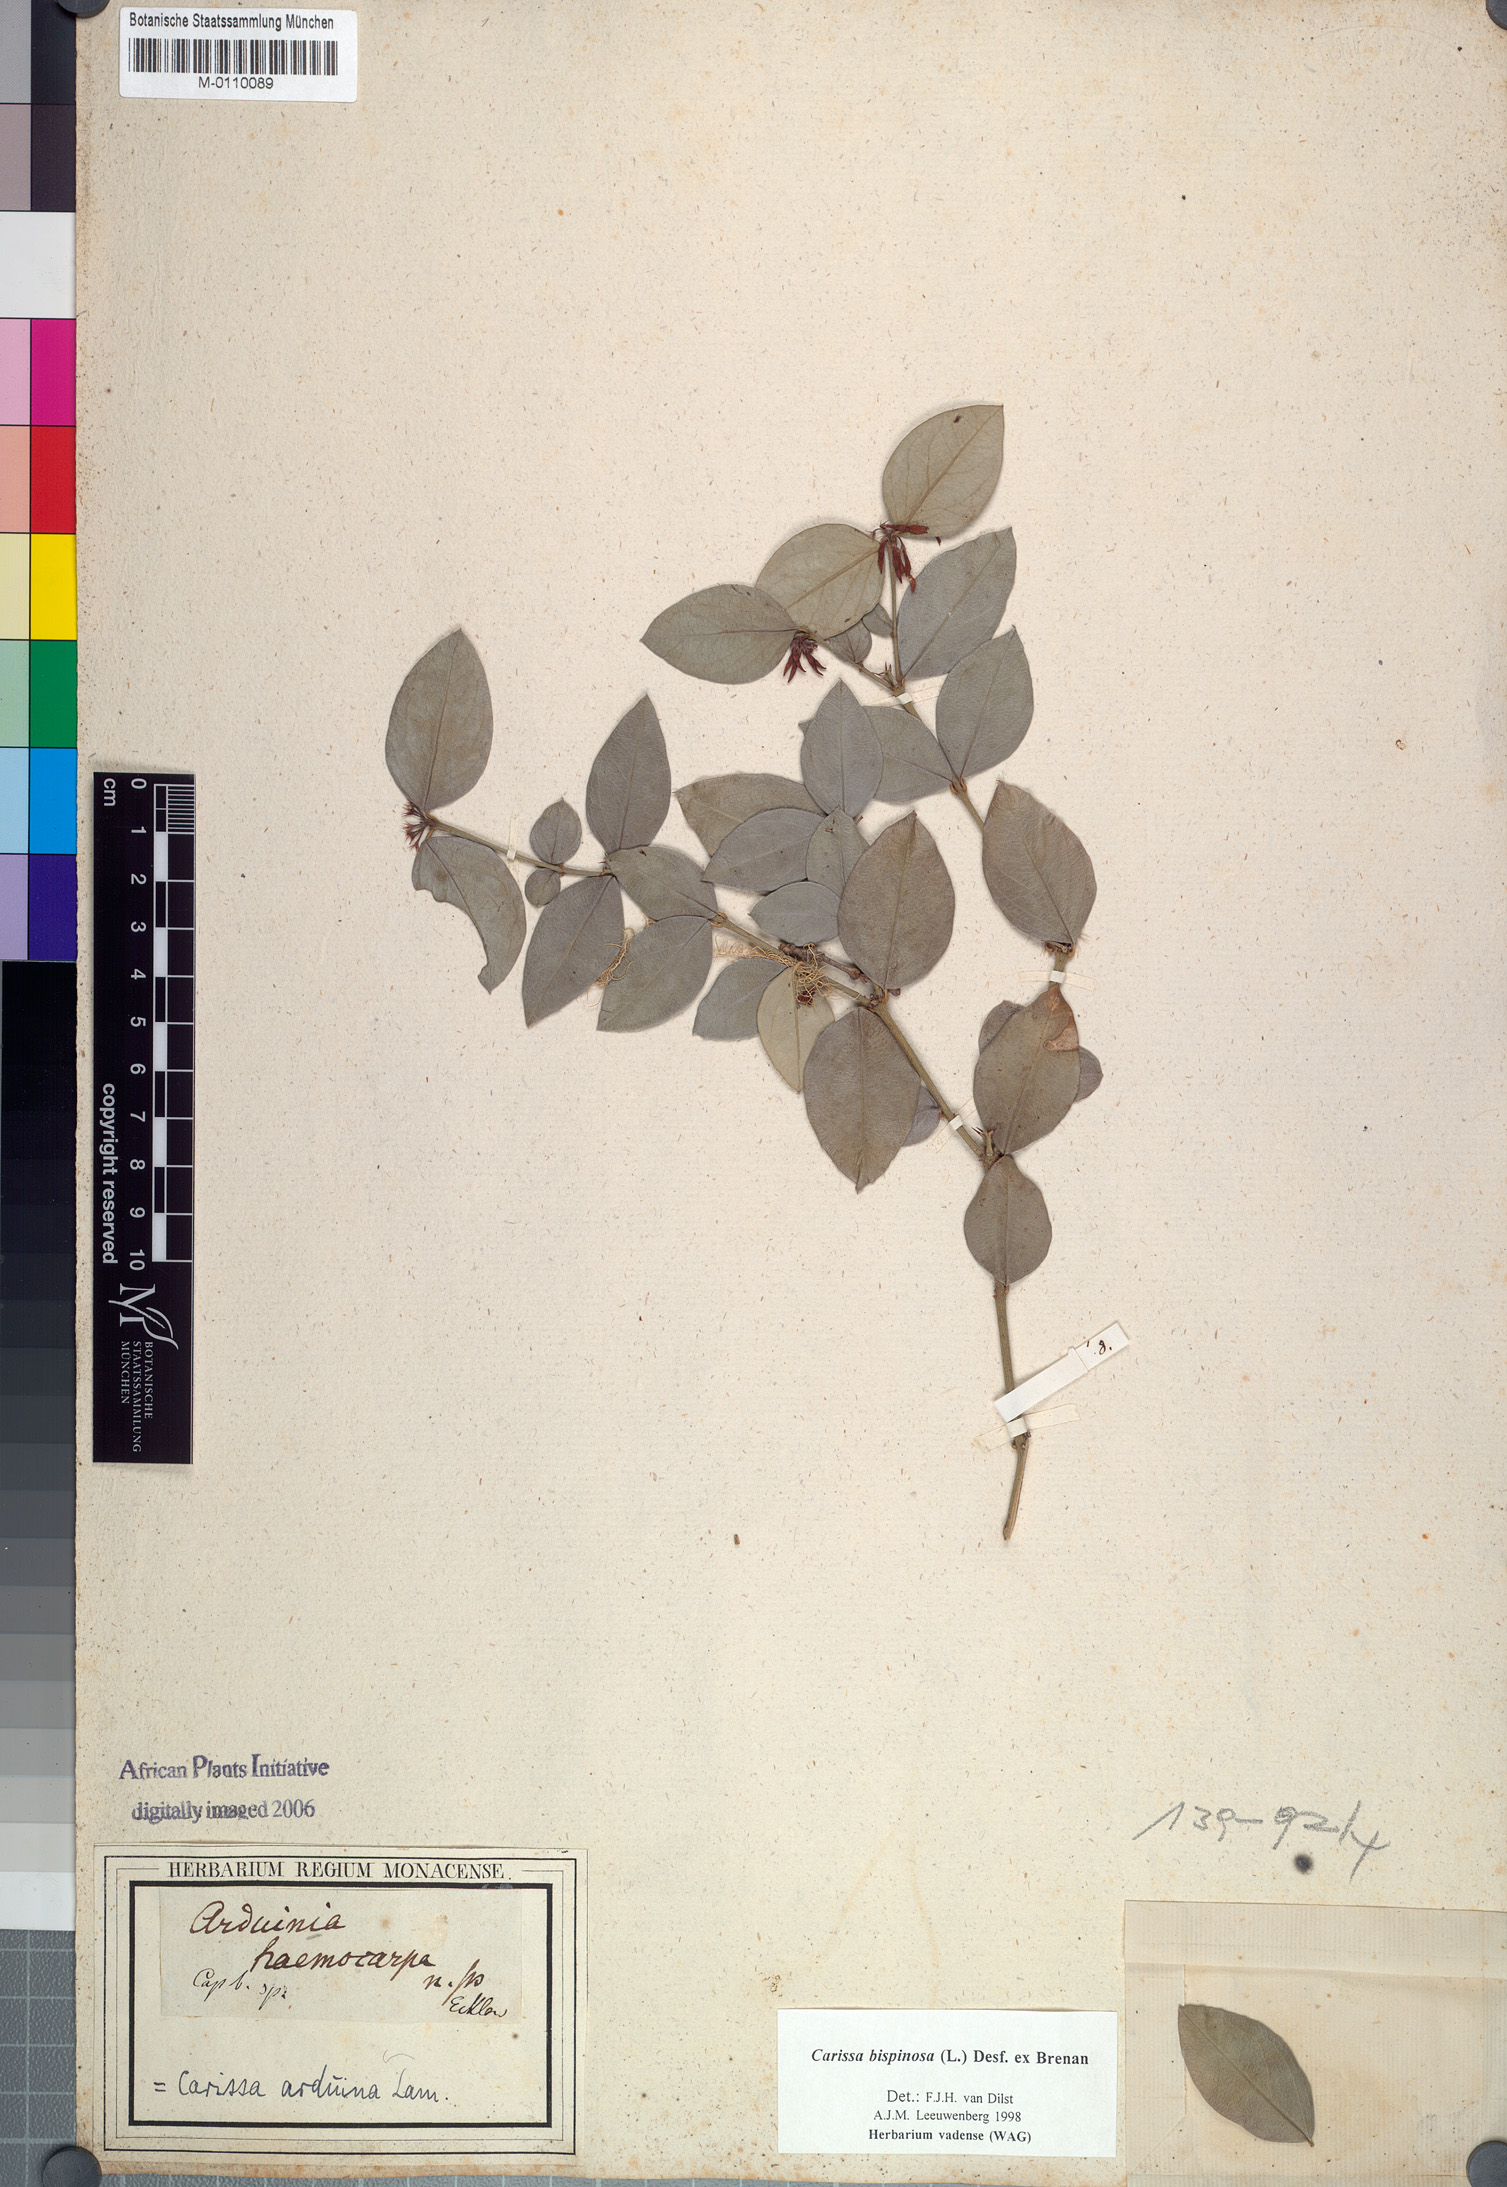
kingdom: Plantae
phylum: Tracheophyta
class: Magnoliopsida
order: Gentianales
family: Apocynaceae
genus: Carissa
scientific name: Carissa bispinosa
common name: Forest num-num
